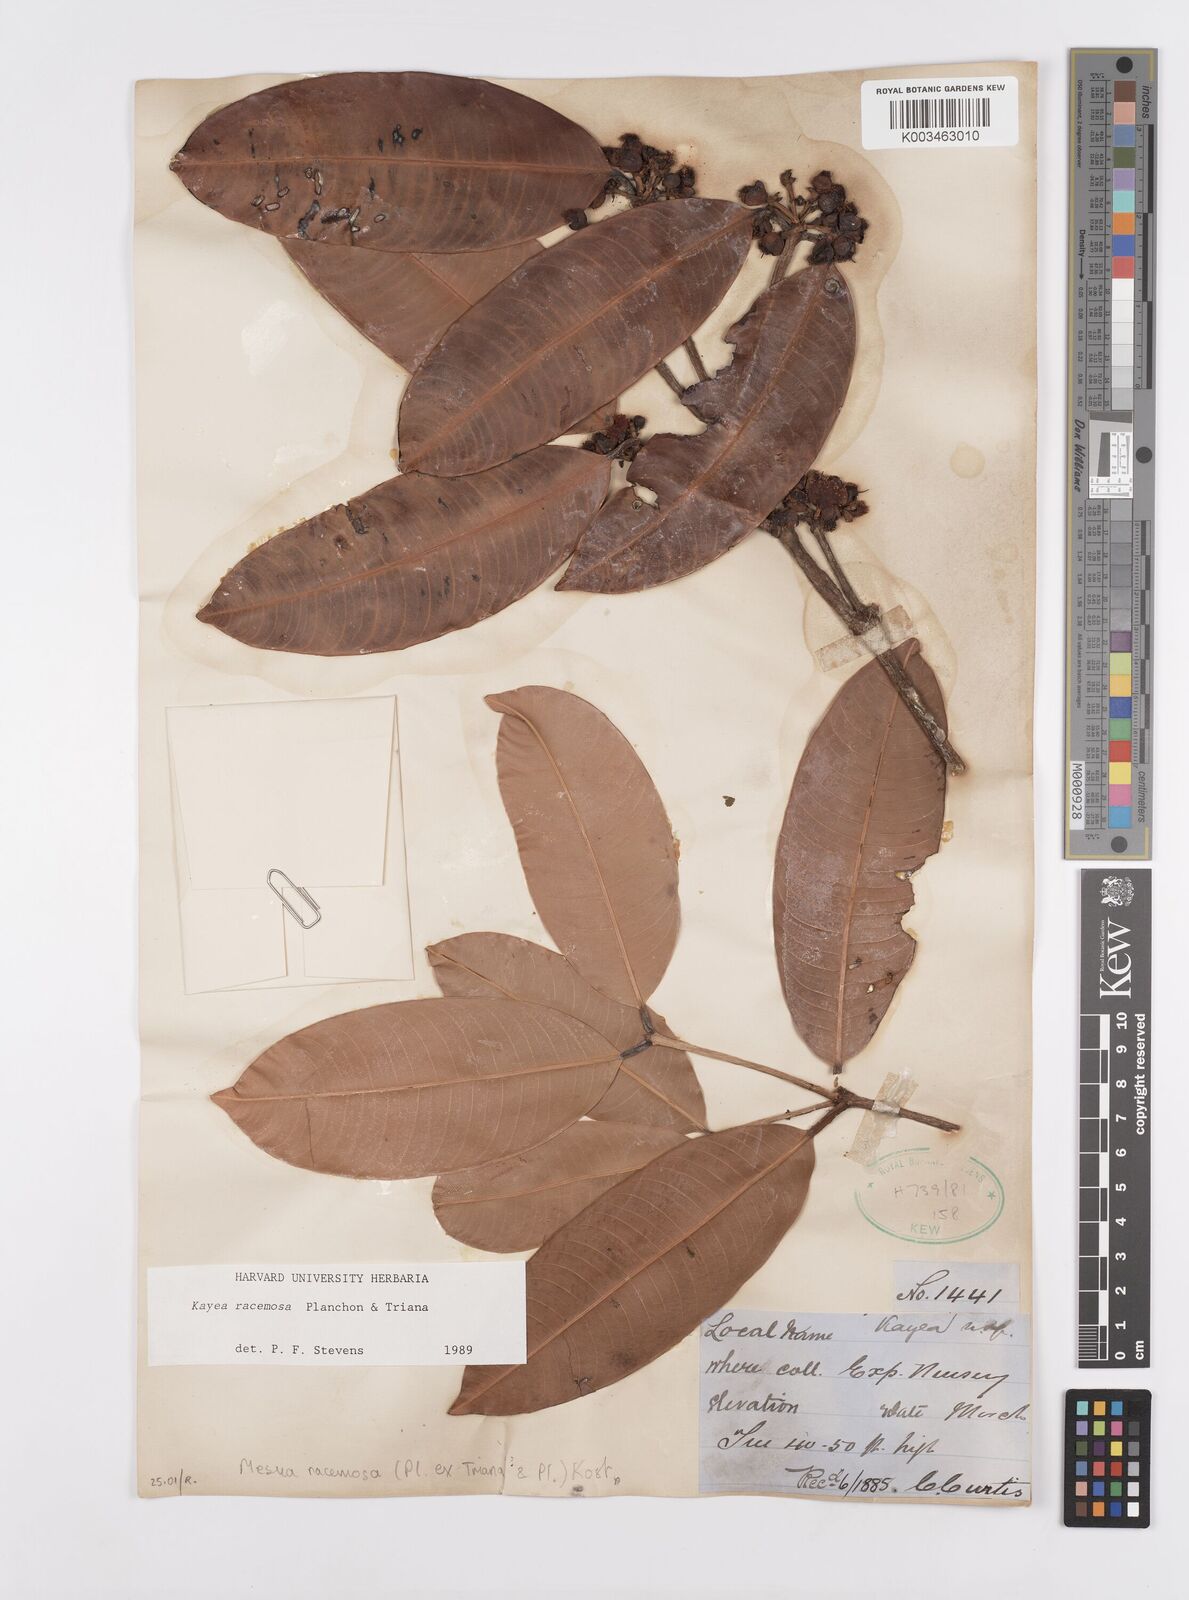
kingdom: Plantae
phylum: Tracheophyta
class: Magnoliopsida
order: Malpighiales
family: Calophyllaceae
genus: Kayea
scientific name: Kayea racemosa
